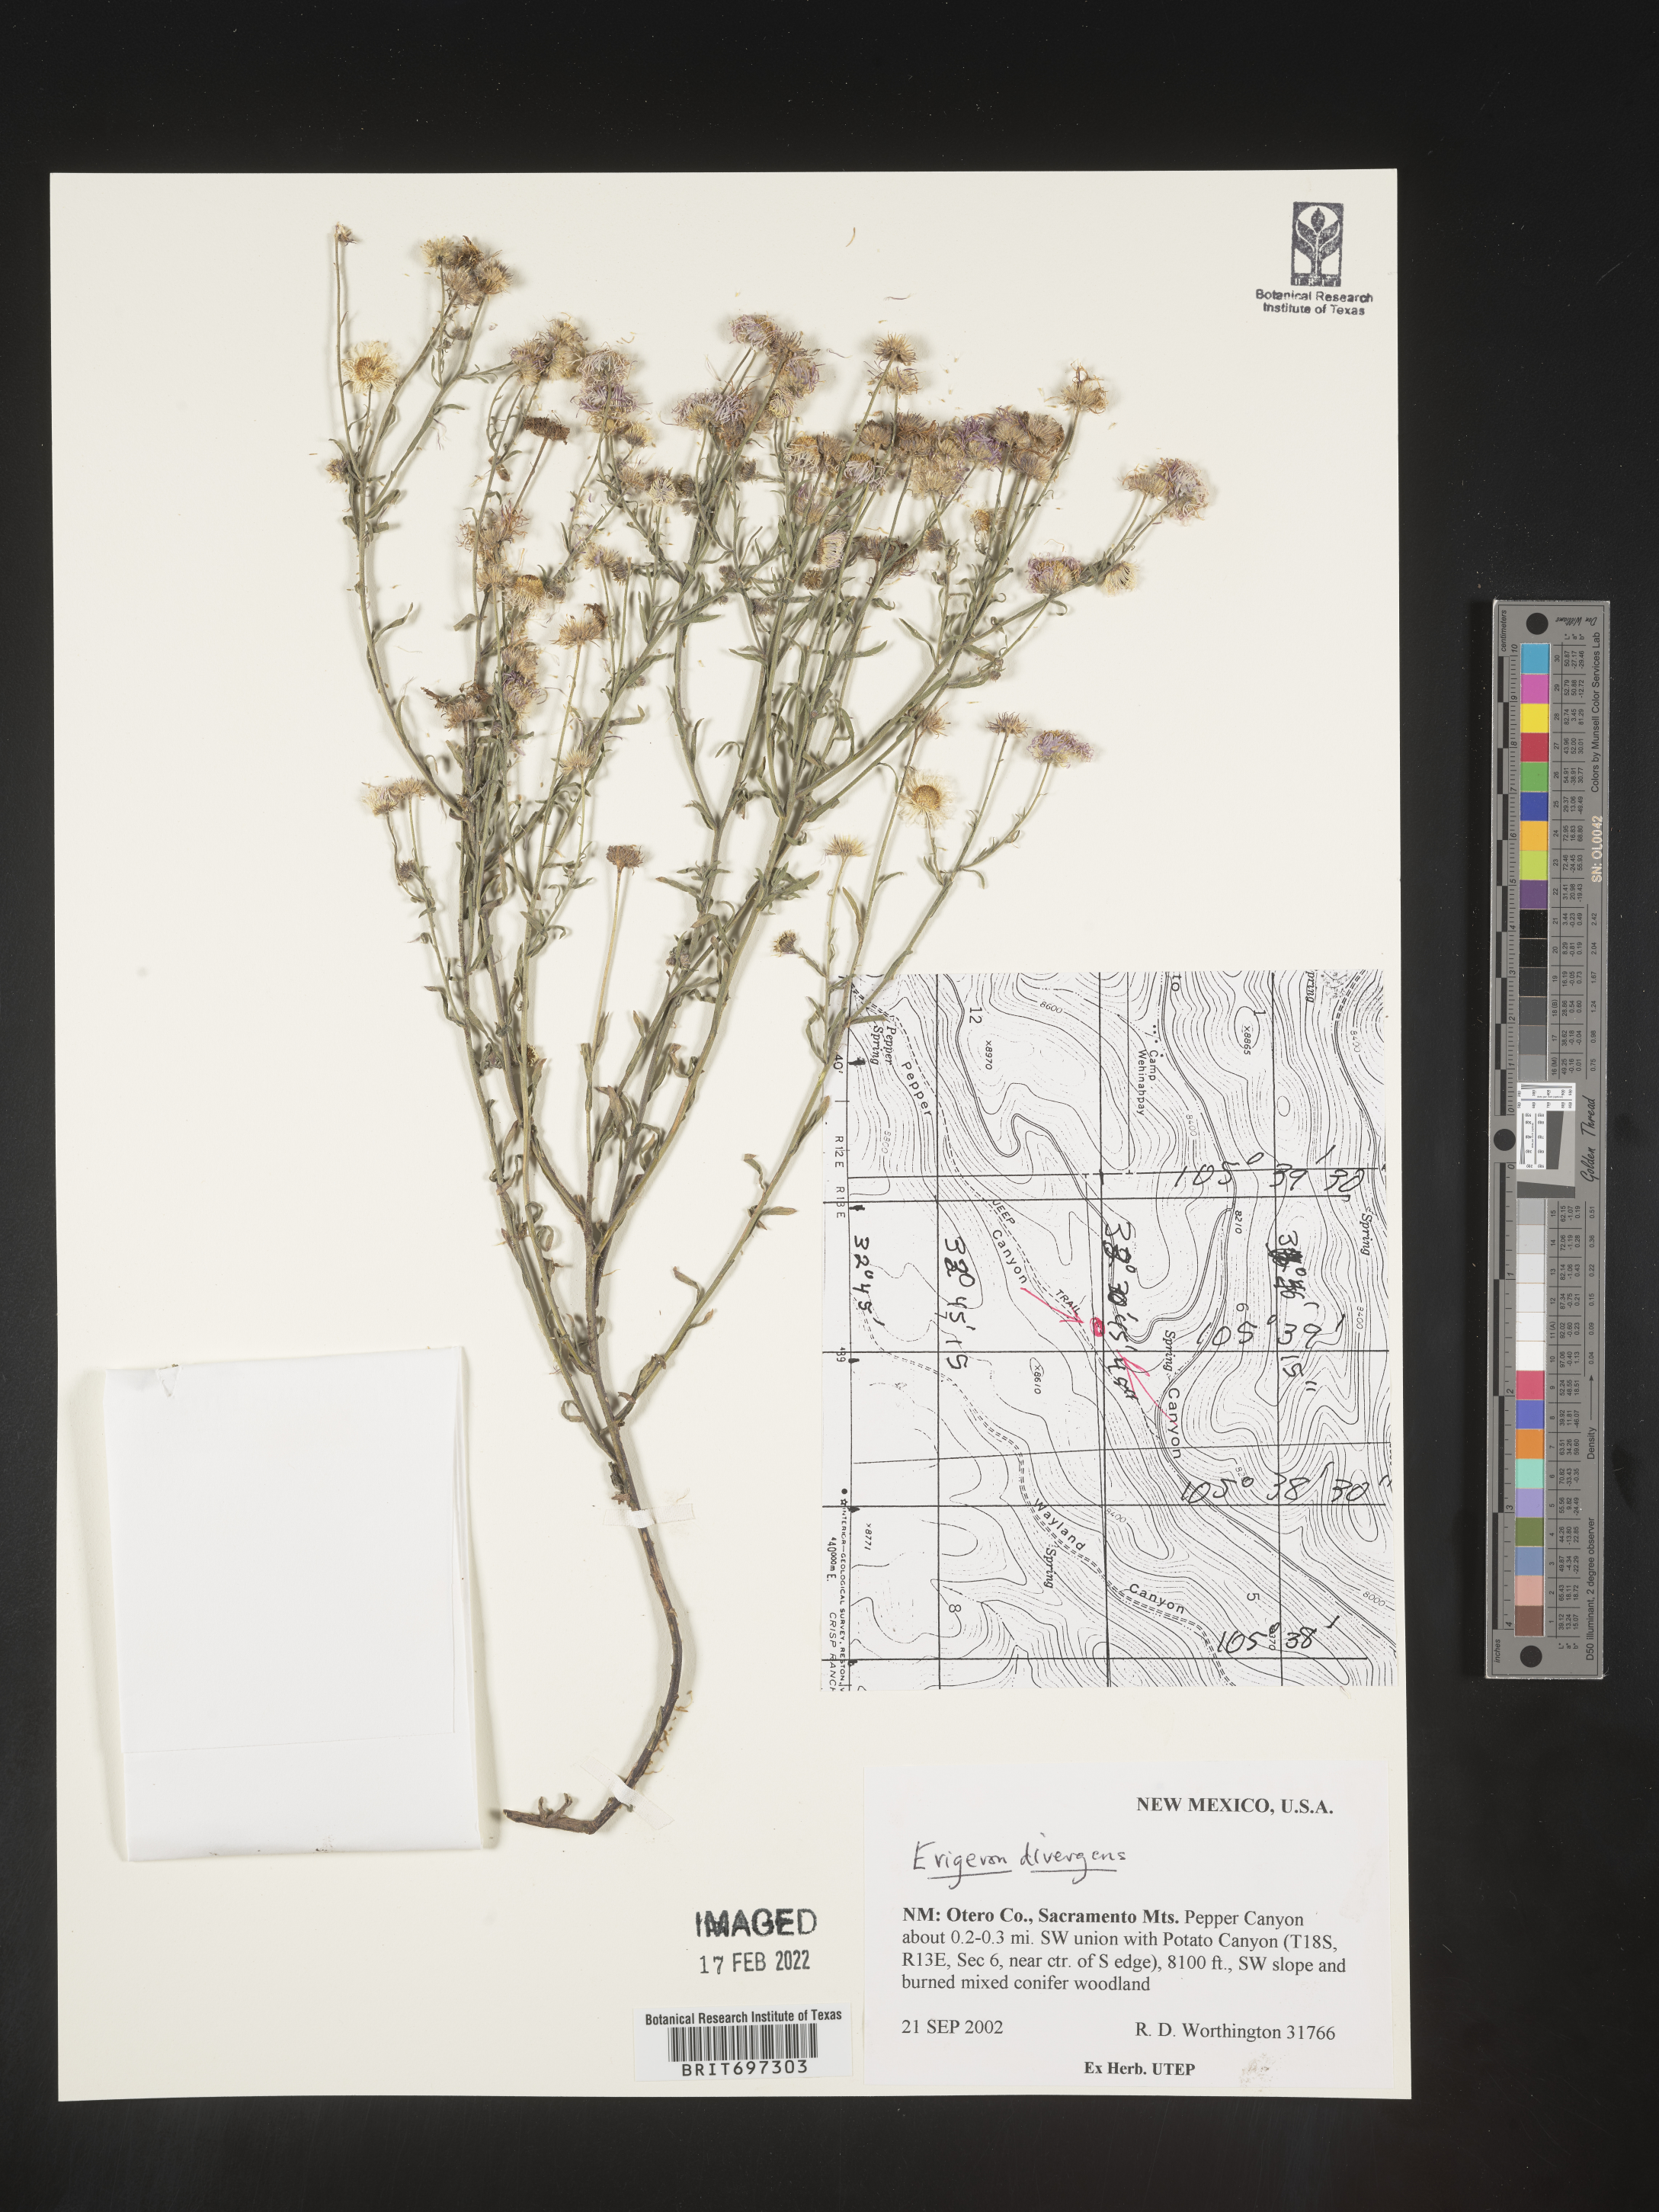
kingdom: Plantae
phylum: Tracheophyta
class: Magnoliopsida
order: Asterales
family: Asteraceae
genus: Erigeron
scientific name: Erigeron divergens
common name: Diffuse fleabane
